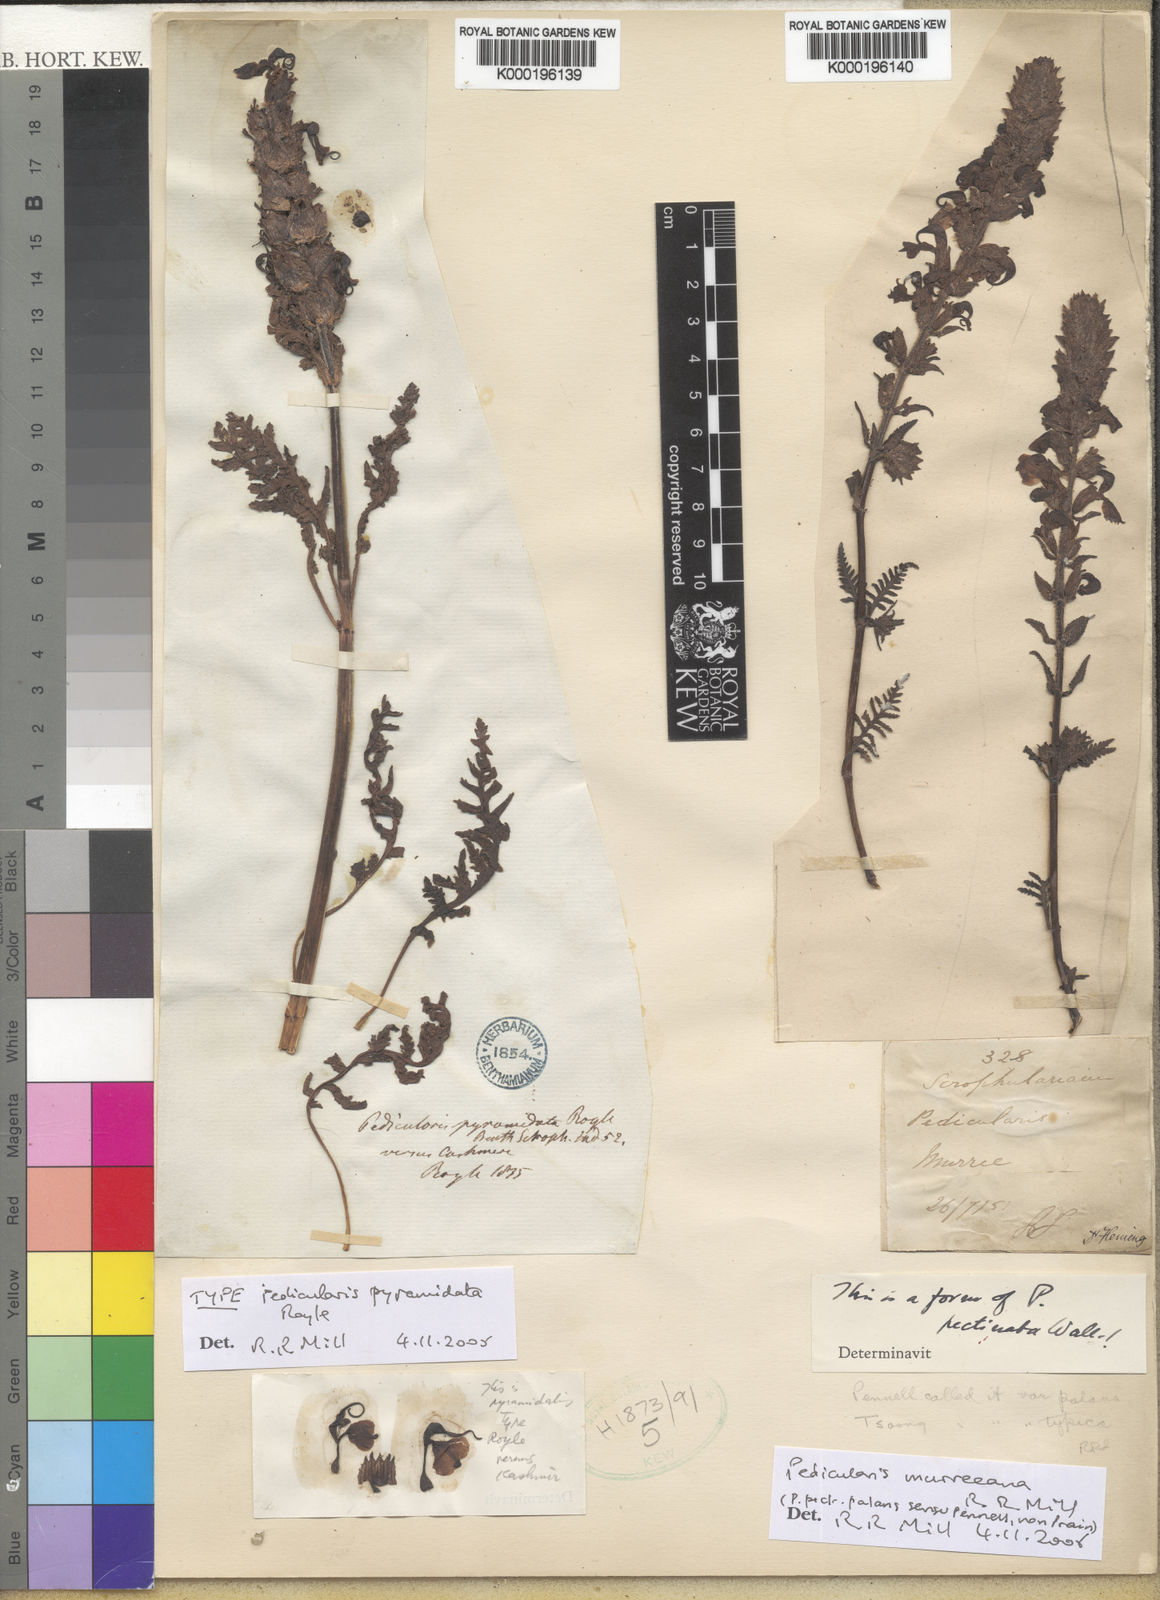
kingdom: Plantae
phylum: Tracheophyta
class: Magnoliopsida
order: Lamiales
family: Orobanchaceae
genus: Pedicularis
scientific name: Pedicularis
